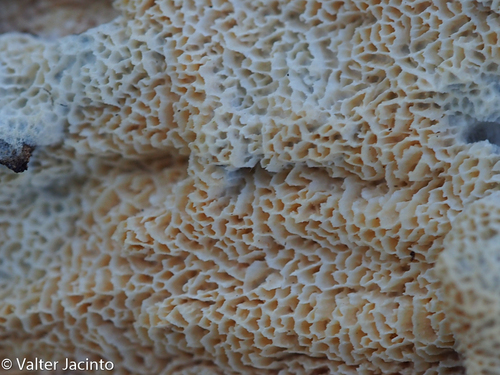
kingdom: Fungi
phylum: Basidiomycota
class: Agaricomycetes
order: Hymenochaetales
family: Schizoporaceae
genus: Xylodon
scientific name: Xylodon flaviporus
